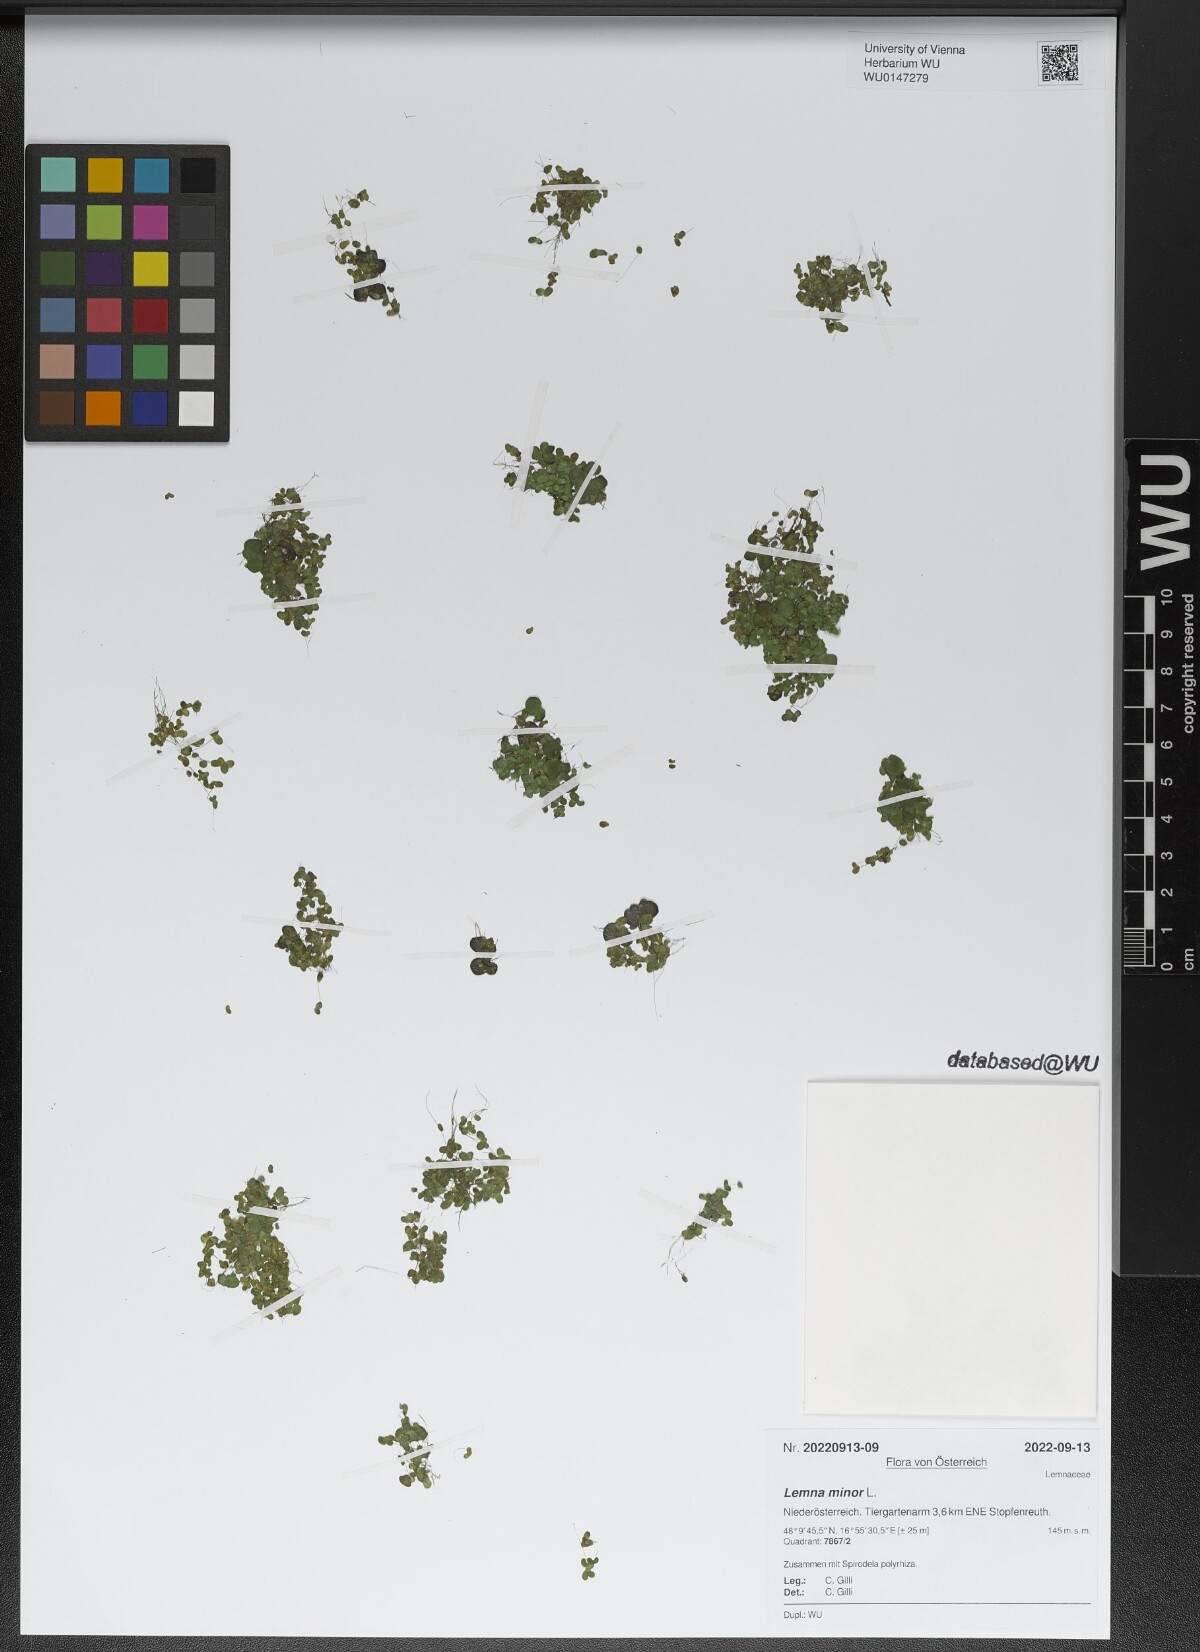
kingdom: Plantae
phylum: Tracheophyta
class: Liliopsida
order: Alismatales
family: Araceae
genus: Lemna
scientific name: Lemna minor
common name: Common duckweed
